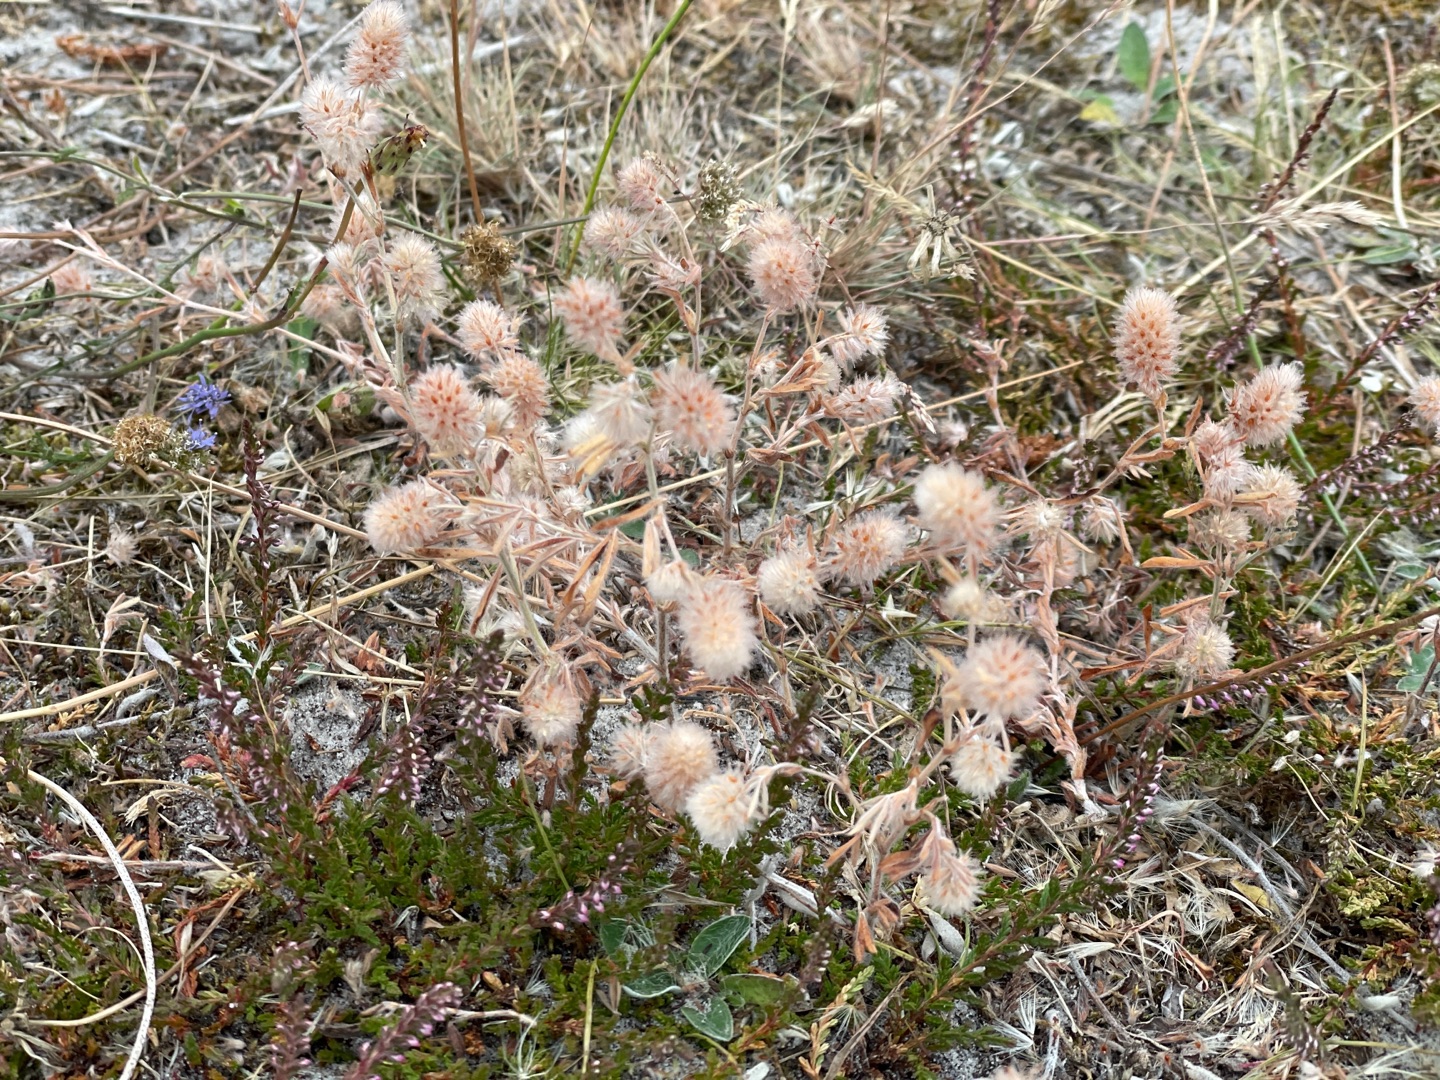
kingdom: Plantae
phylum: Tracheophyta
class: Magnoliopsida
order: Fabales
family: Fabaceae
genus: Trifolium
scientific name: Trifolium arvense
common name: Hare-kløver
